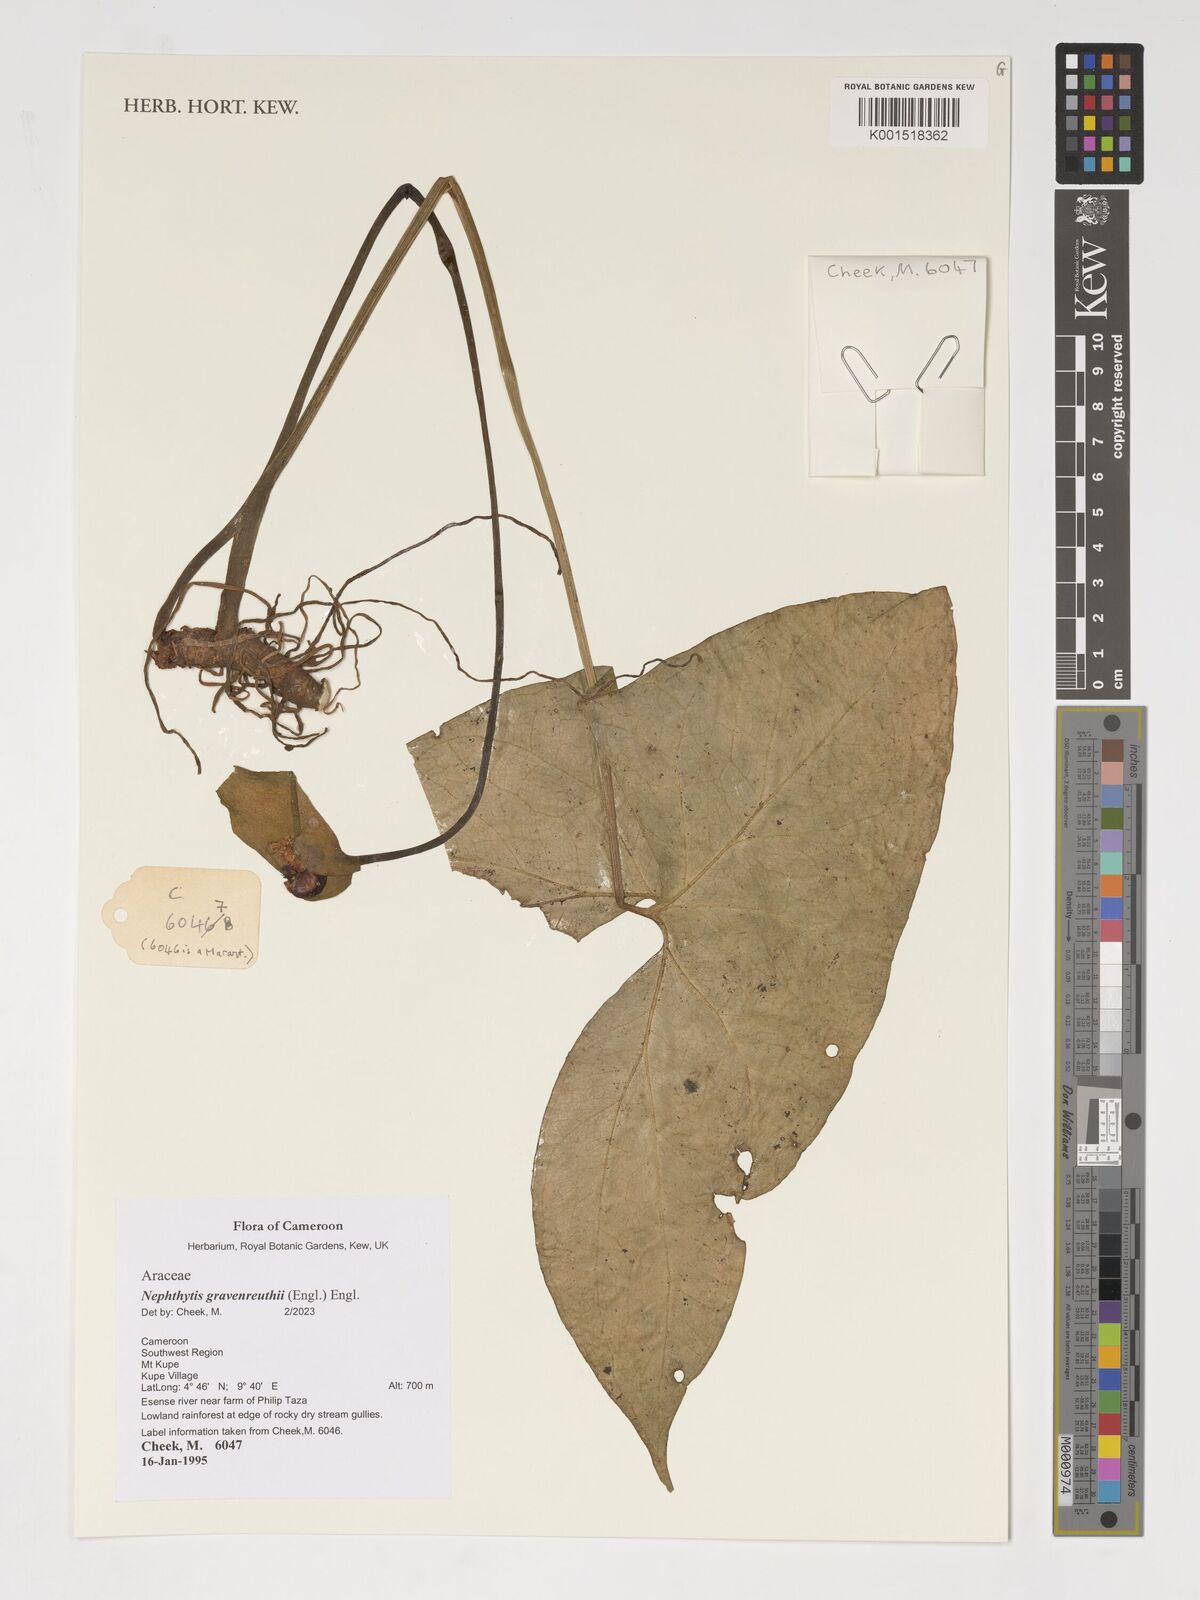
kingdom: Plantae
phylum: Tracheophyta
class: Liliopsida
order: Alismatales
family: Araceae
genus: Nephthytis
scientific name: Nephthytis poissonii
